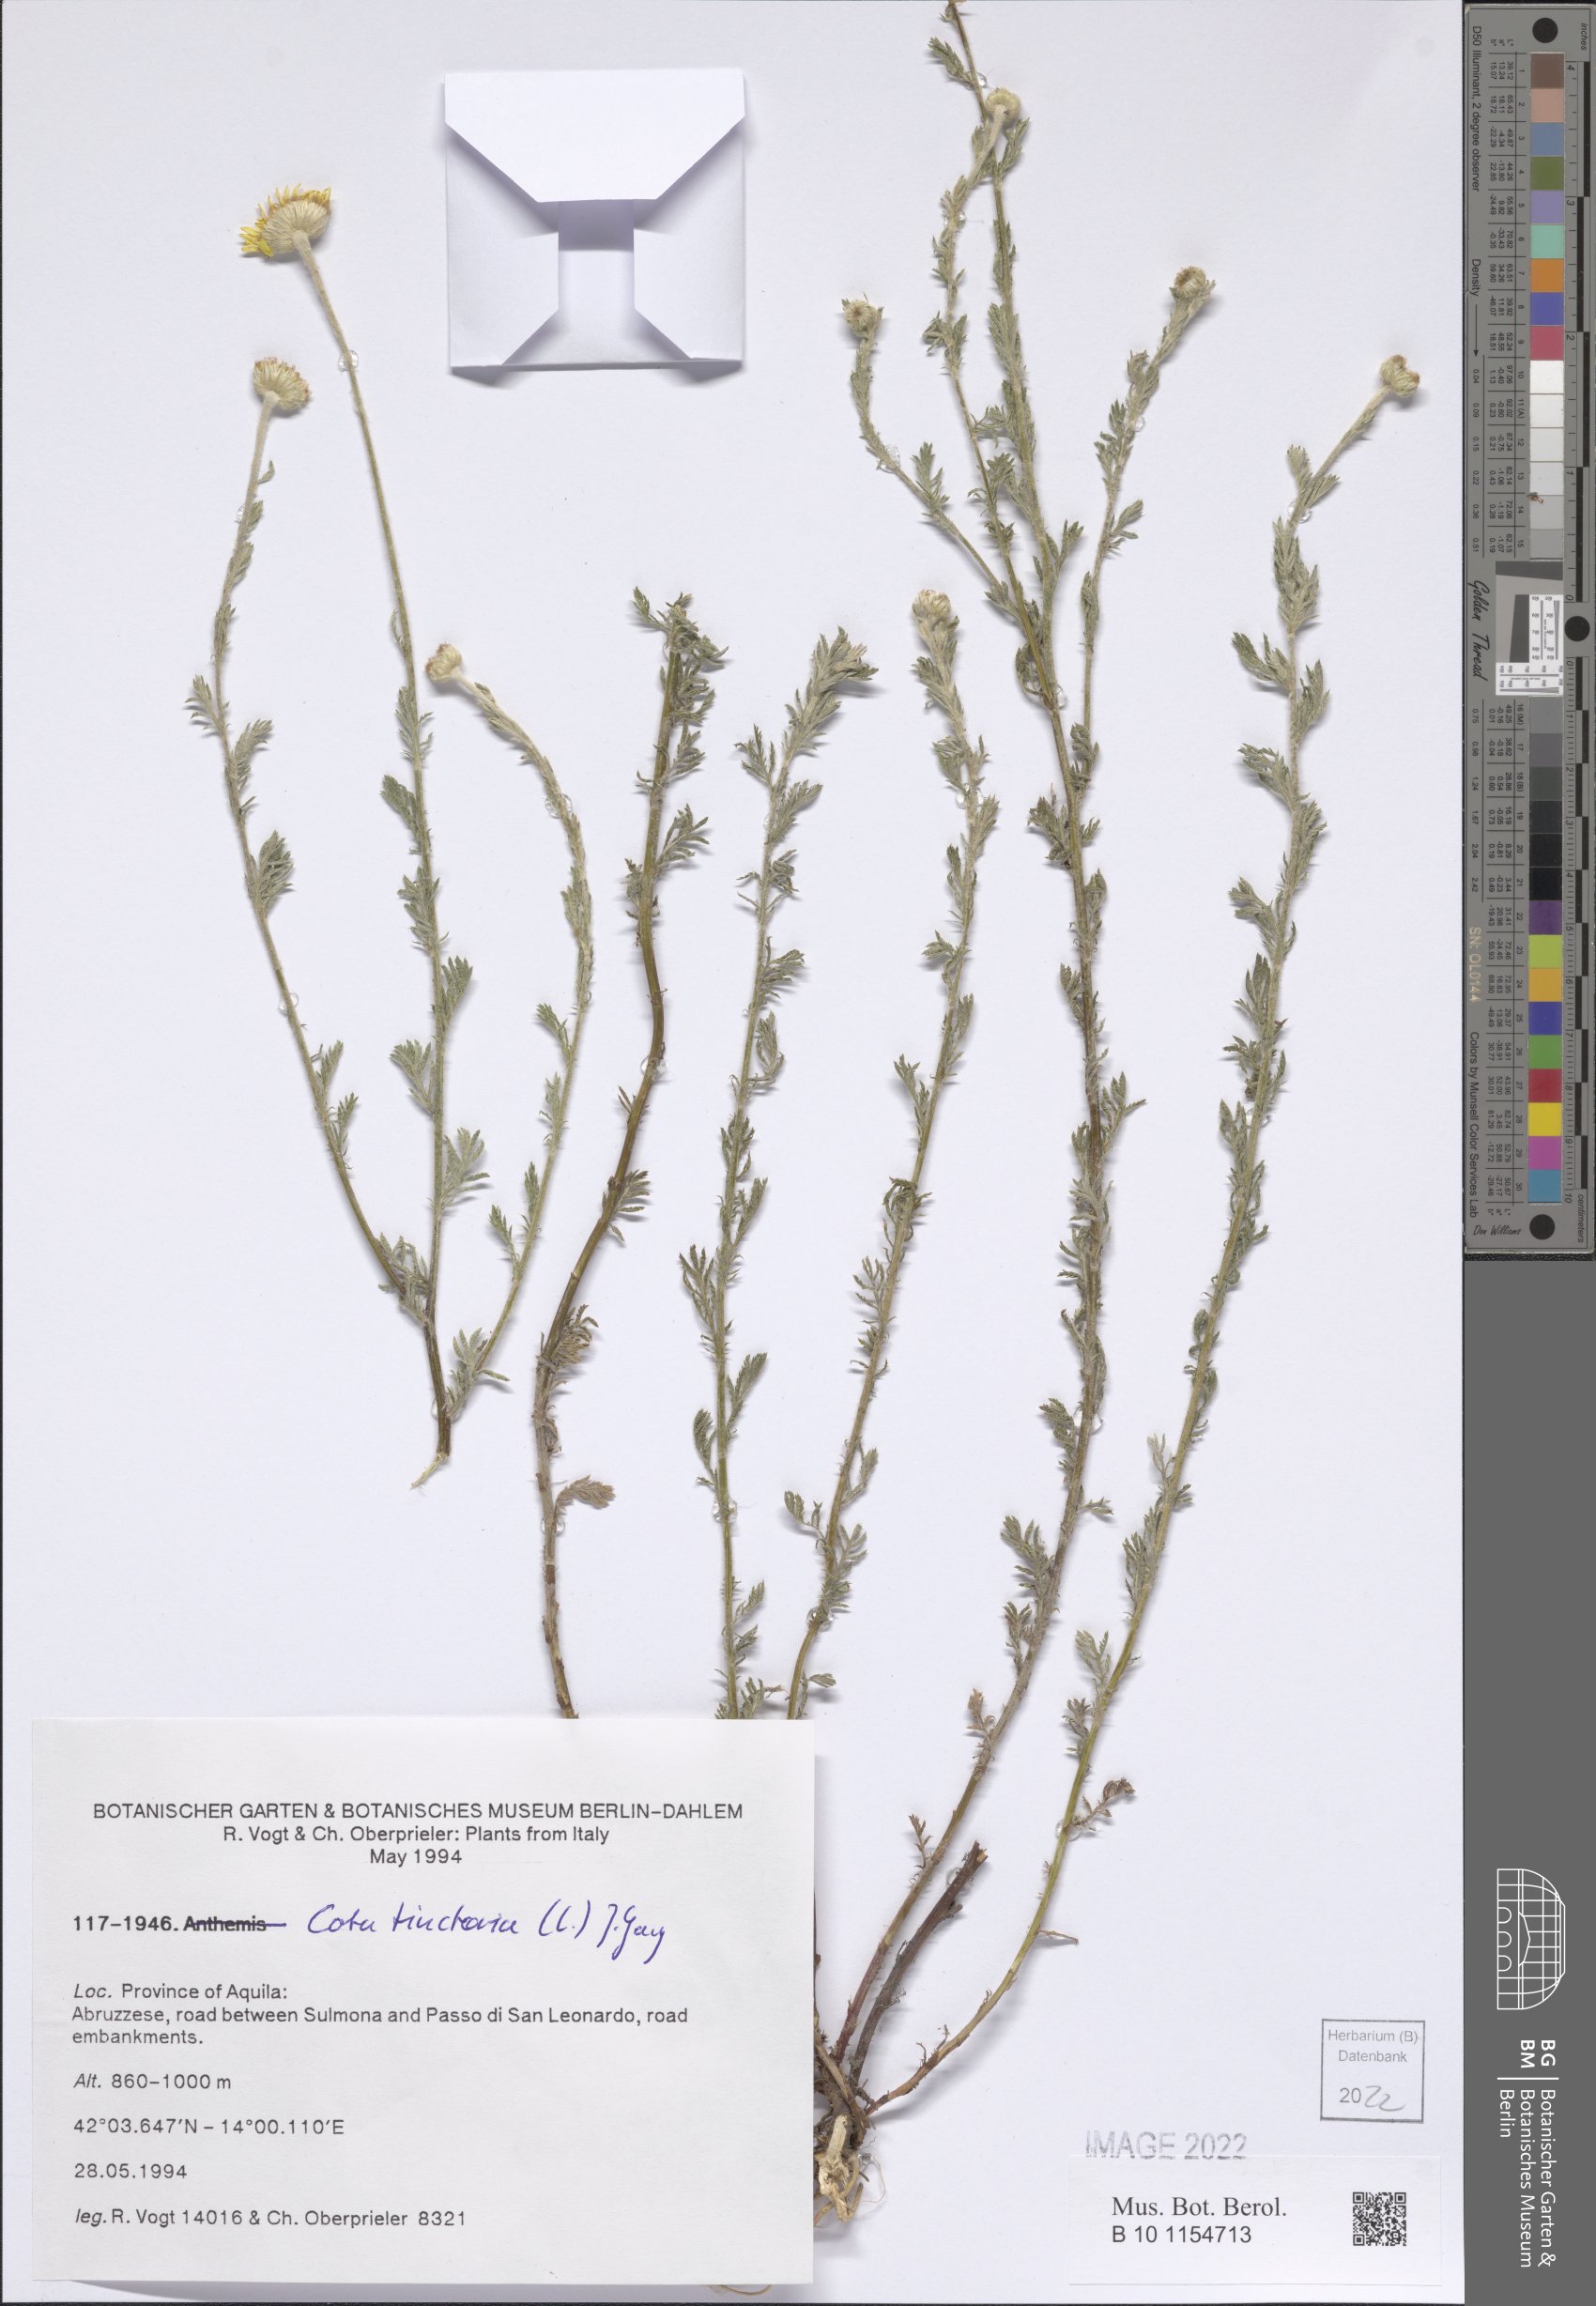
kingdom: Plantae
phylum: Tracheophyta
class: Magnoliopsida
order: Asterales
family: Asteraceae
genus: Cota
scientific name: Cota tinctoria
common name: Golden chamomile
